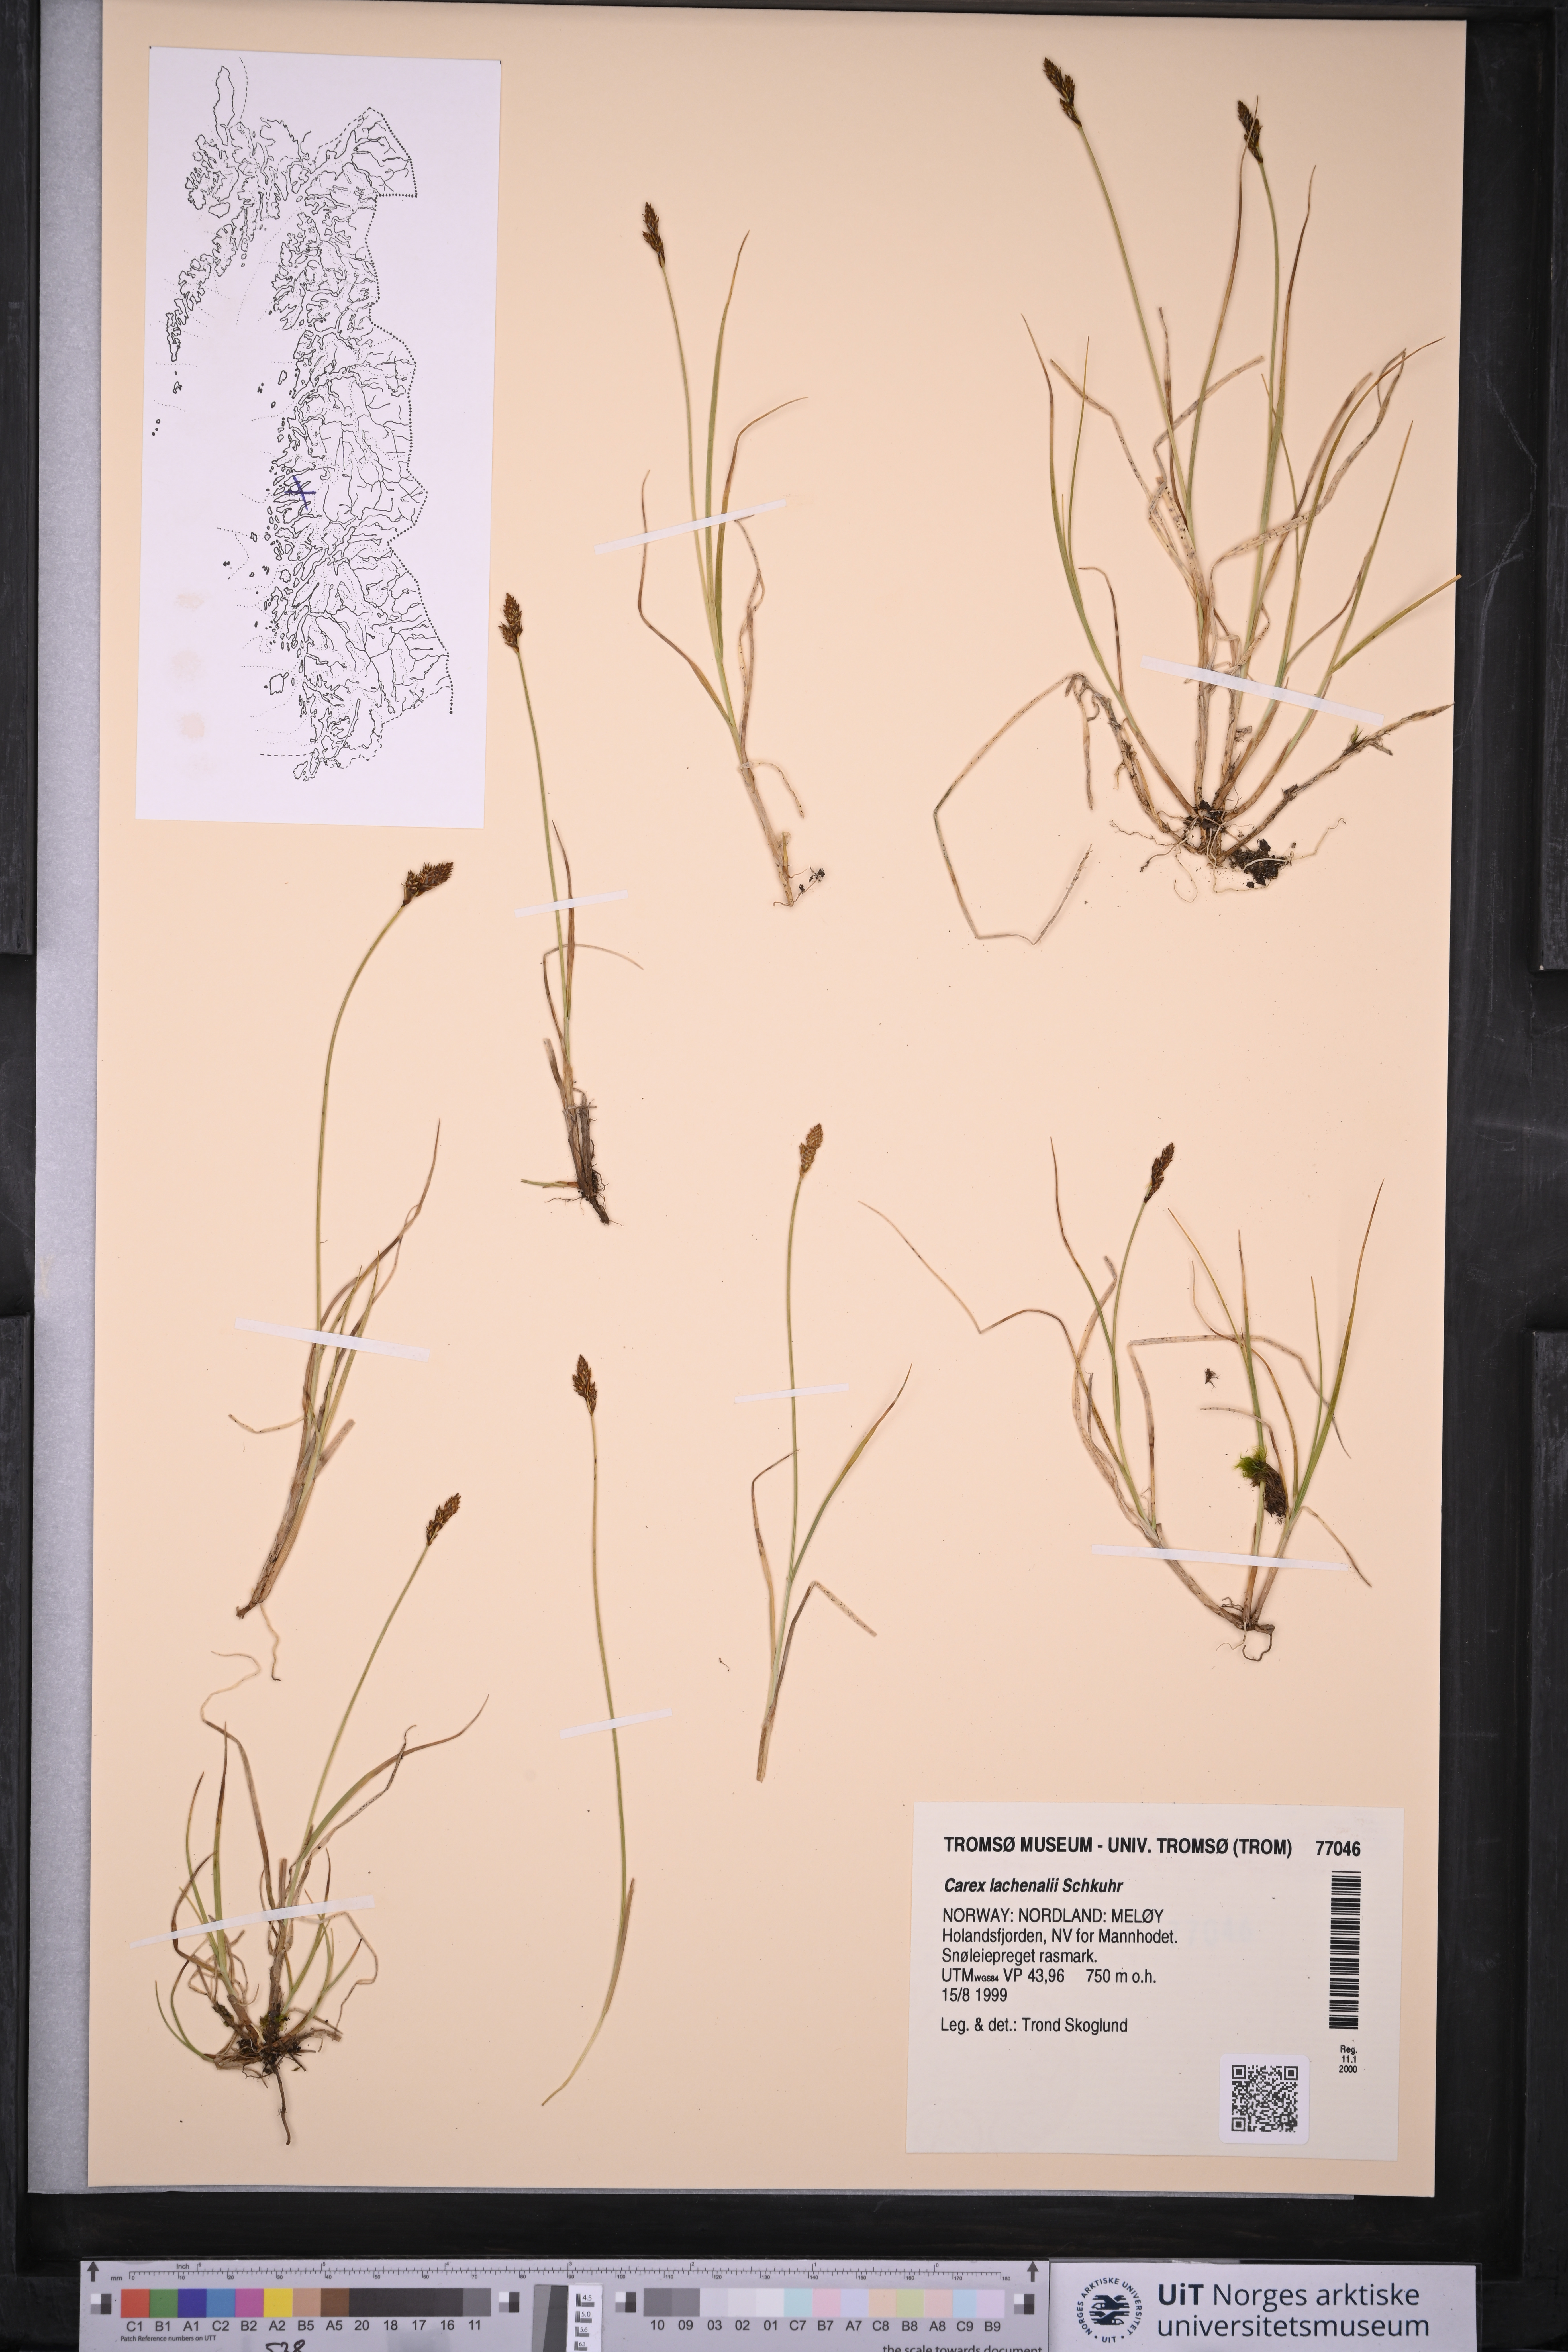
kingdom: Plantae
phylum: Tracheophyta
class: Liliopsida
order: Poales
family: Cyperaceae
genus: Carex
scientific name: Carex lachenalii
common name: Hare's-foot sedge
